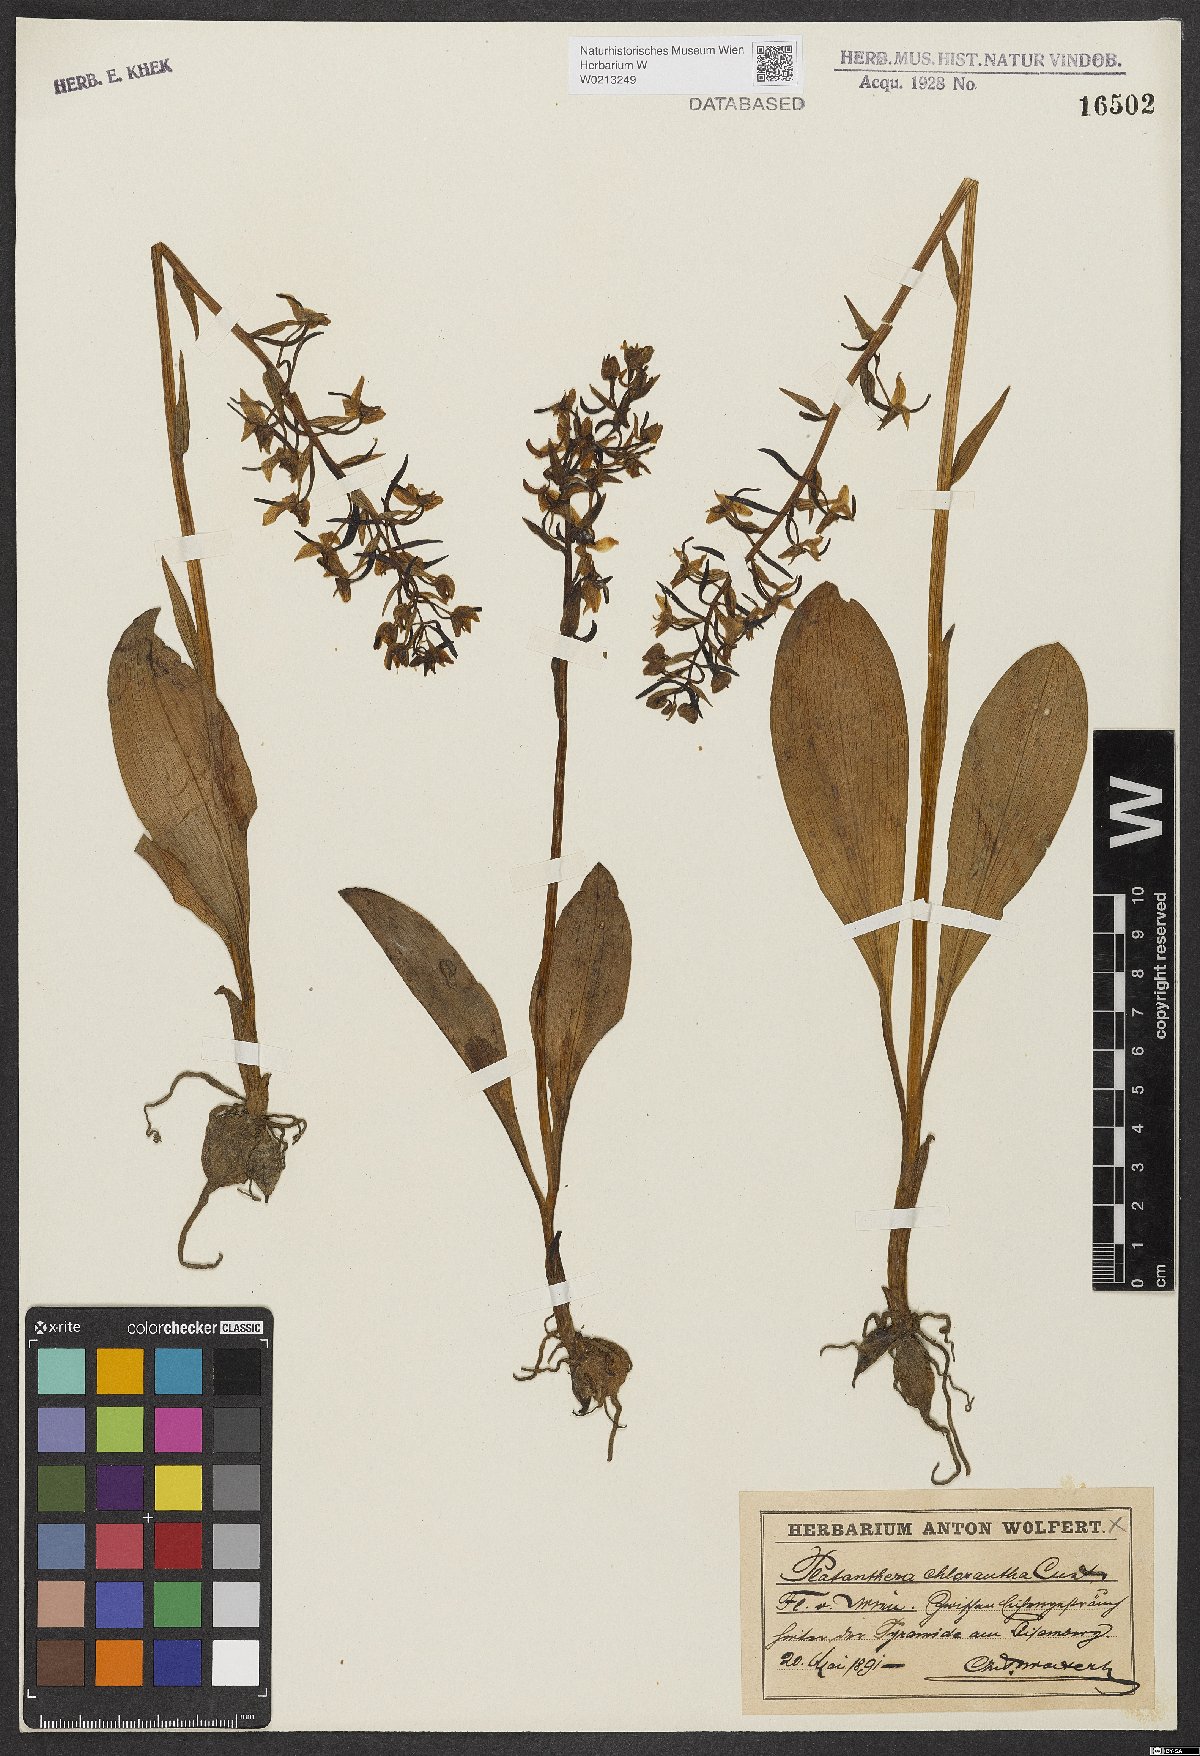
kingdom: Plantae
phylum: Tracheophyta
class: Liliopsida
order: Asparagales
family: Orchidaceae
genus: Platanthera
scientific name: Platanthera chlorantha
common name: Greater butterfly-orchid
